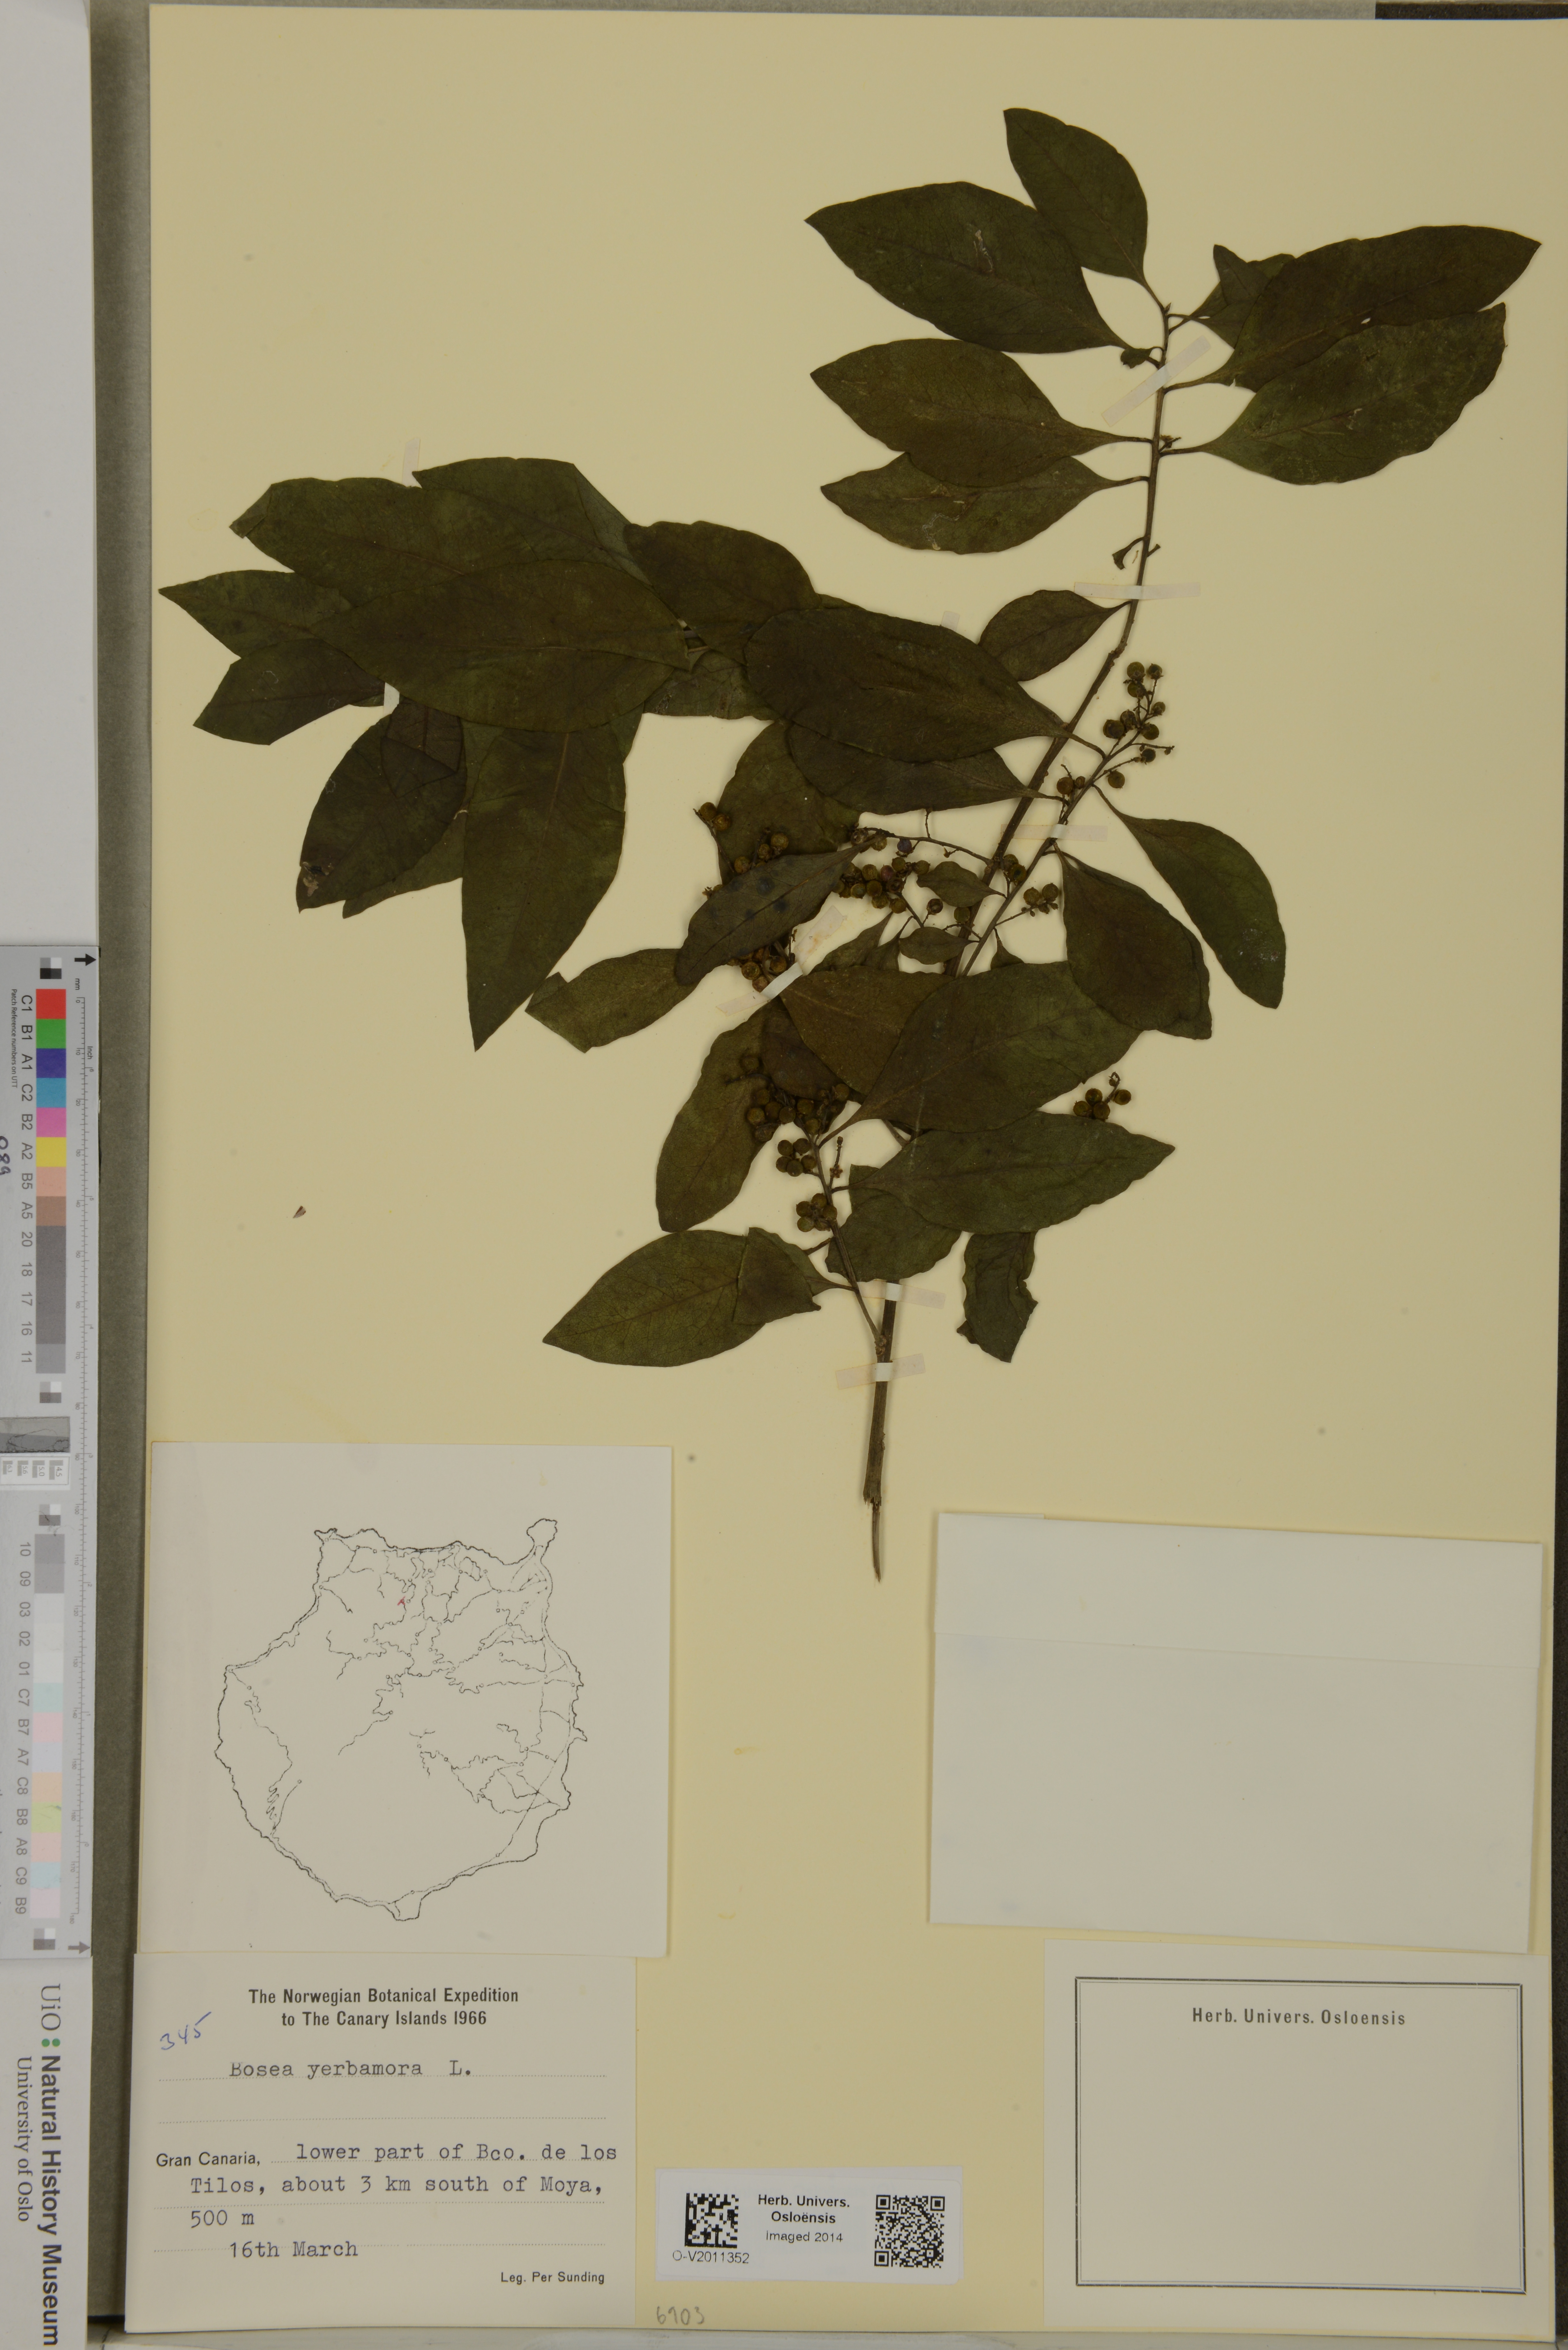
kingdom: Plantae
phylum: Tracheophyta
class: Magnoliopsida
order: Caryophyllales
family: Amaranthaceae
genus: Bosea
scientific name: Bosea yervamora
